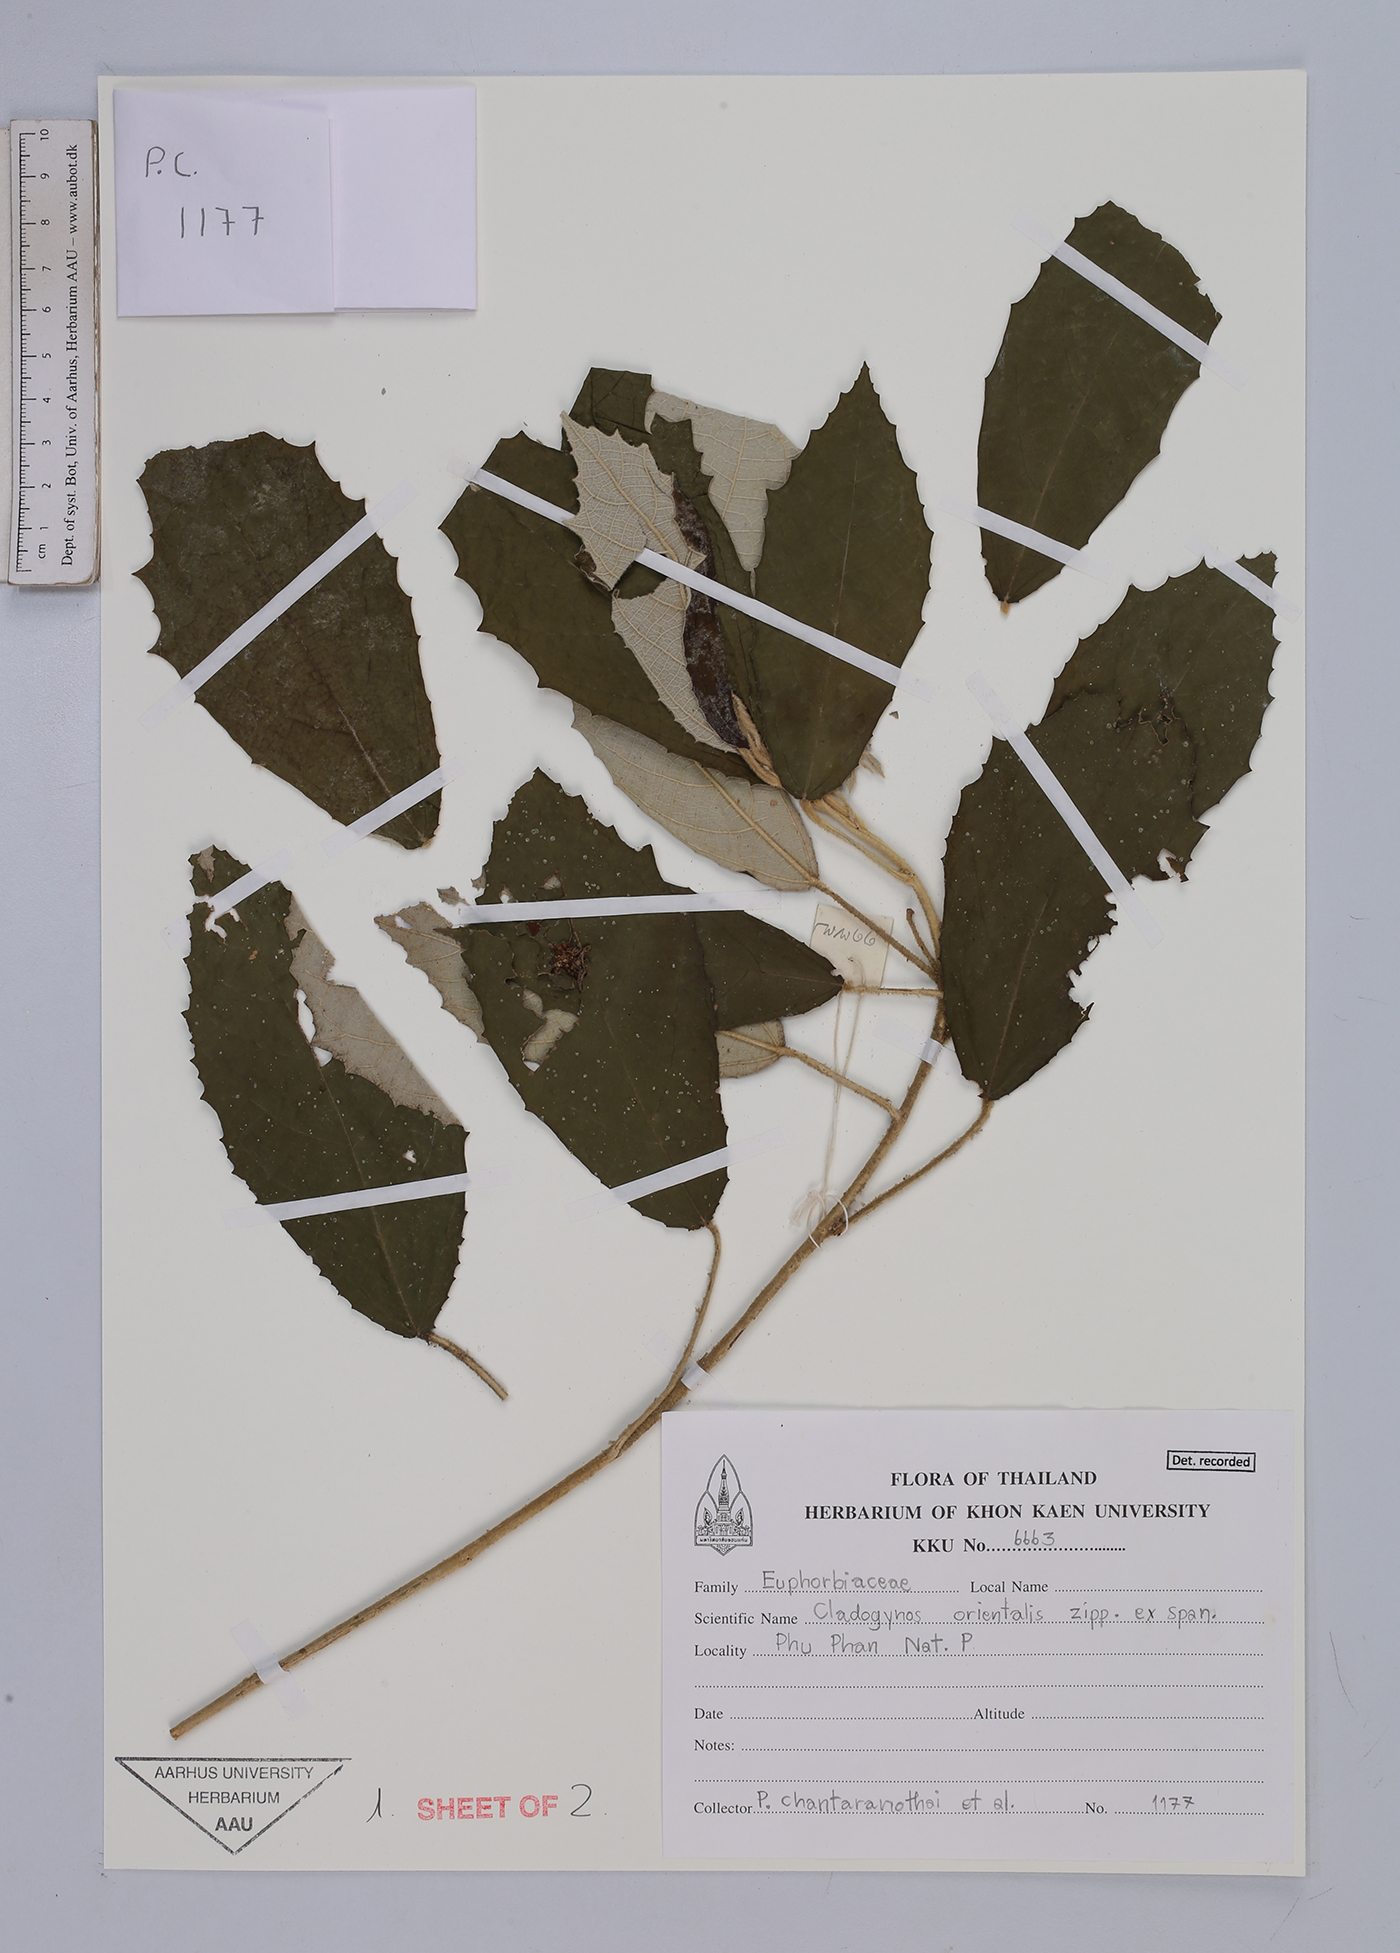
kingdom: Plantae
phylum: Tracheophyta
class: Magnoliopsida
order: Malpighiales
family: Euphorbiaceae
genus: Cladogynos
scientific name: Cladogynos orientalis
